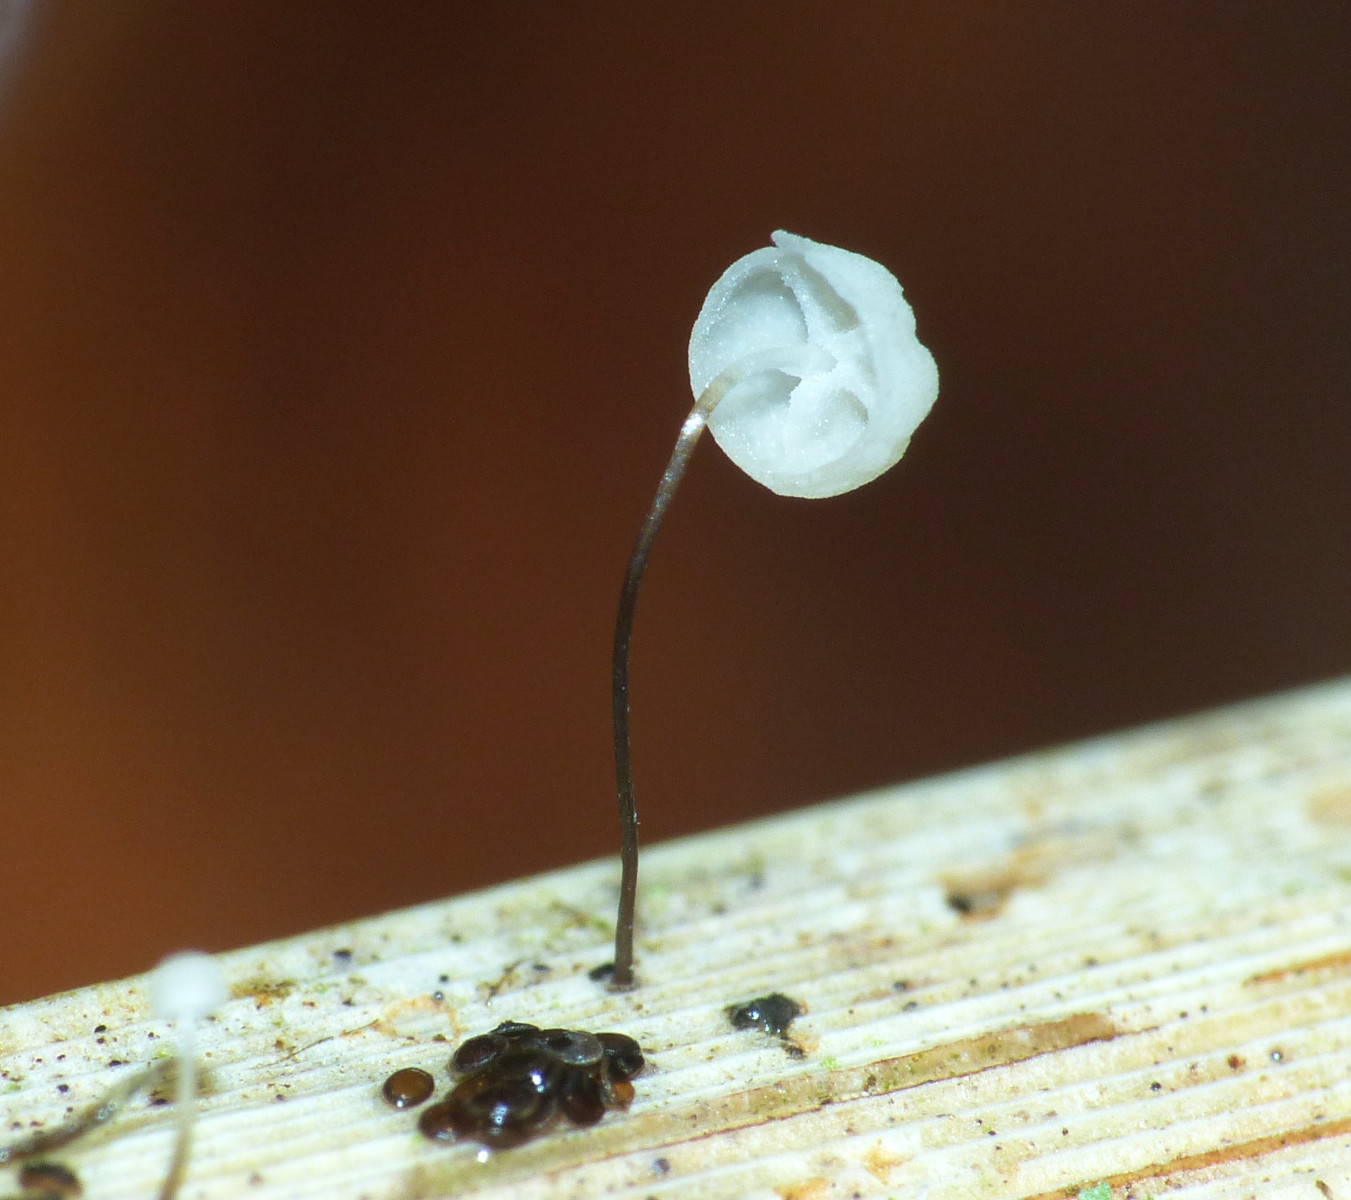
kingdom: Fungi
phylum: Basidiomycota
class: Agaricomycetes
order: Agaricales
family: Marasmiaceae
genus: Marasmius
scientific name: Marasmius limosus
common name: kær-bruskhat
